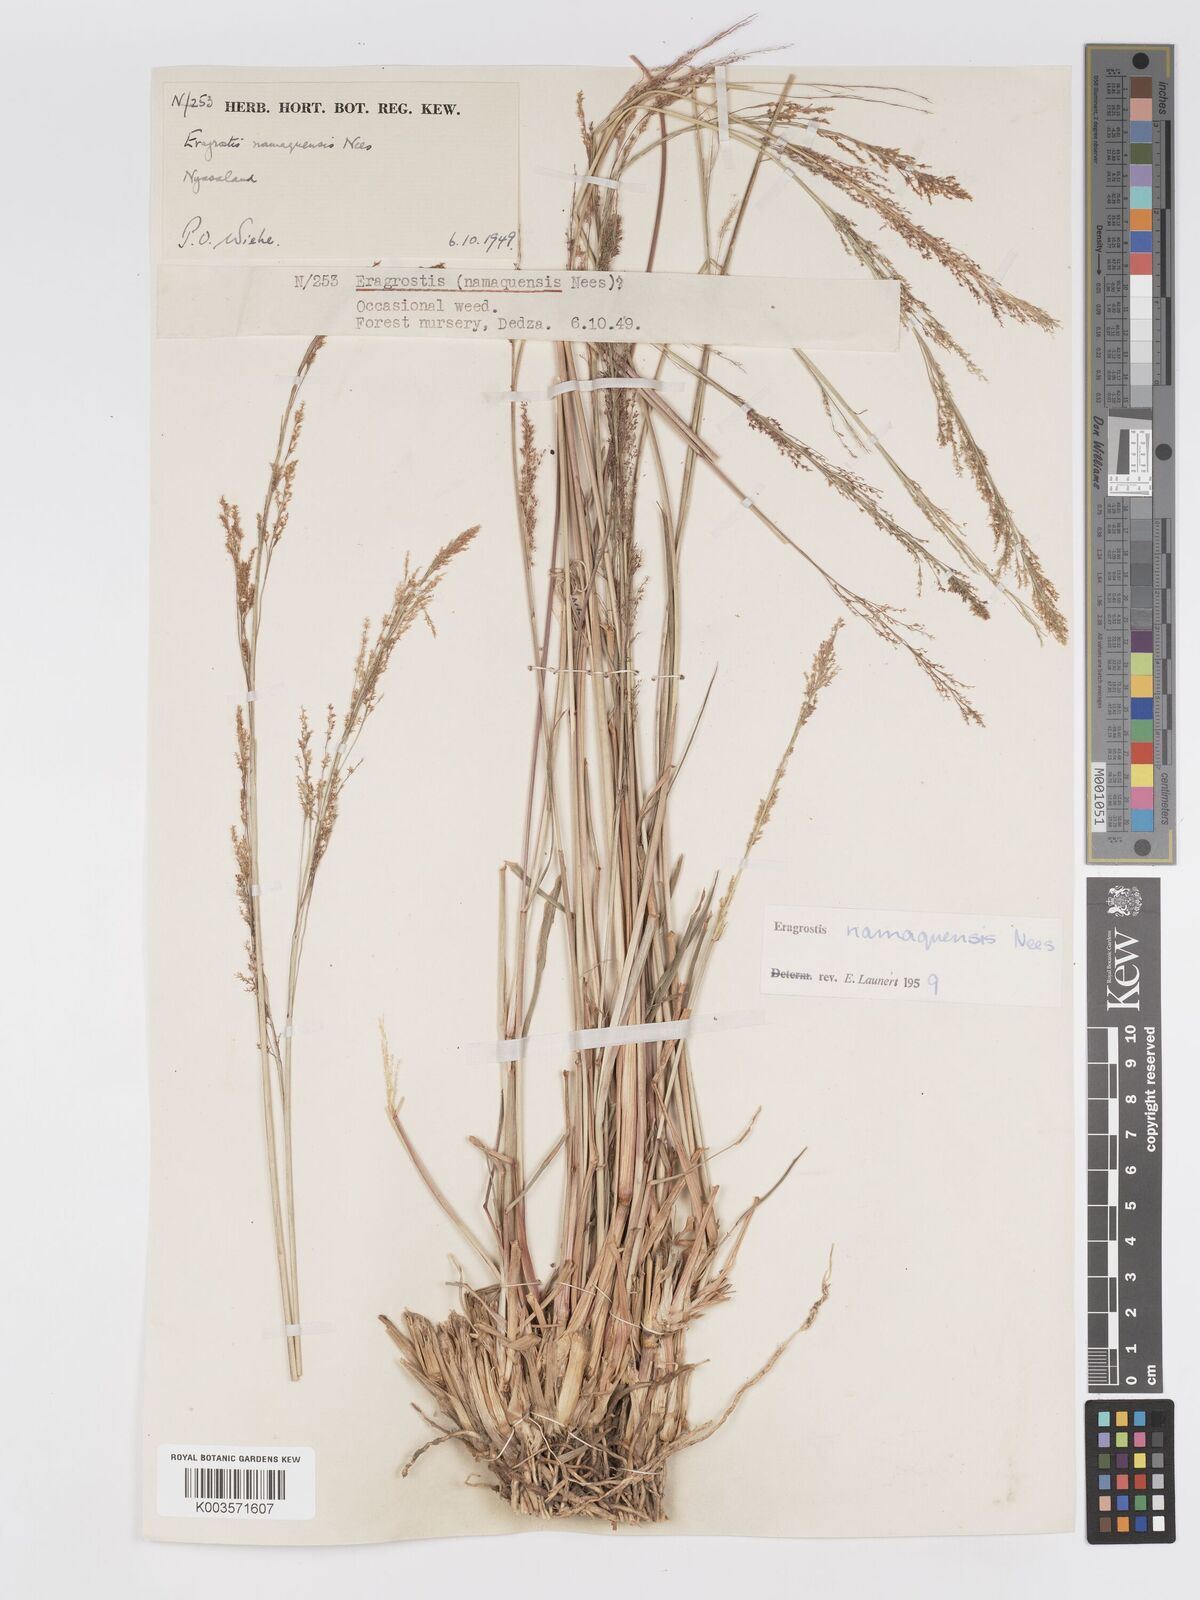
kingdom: Plantae
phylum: Tracheophyta
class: Liliopsida
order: Poales
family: Poaceae
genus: Eragrostis
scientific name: Eragrostis japonica
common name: Pond lovegrass
